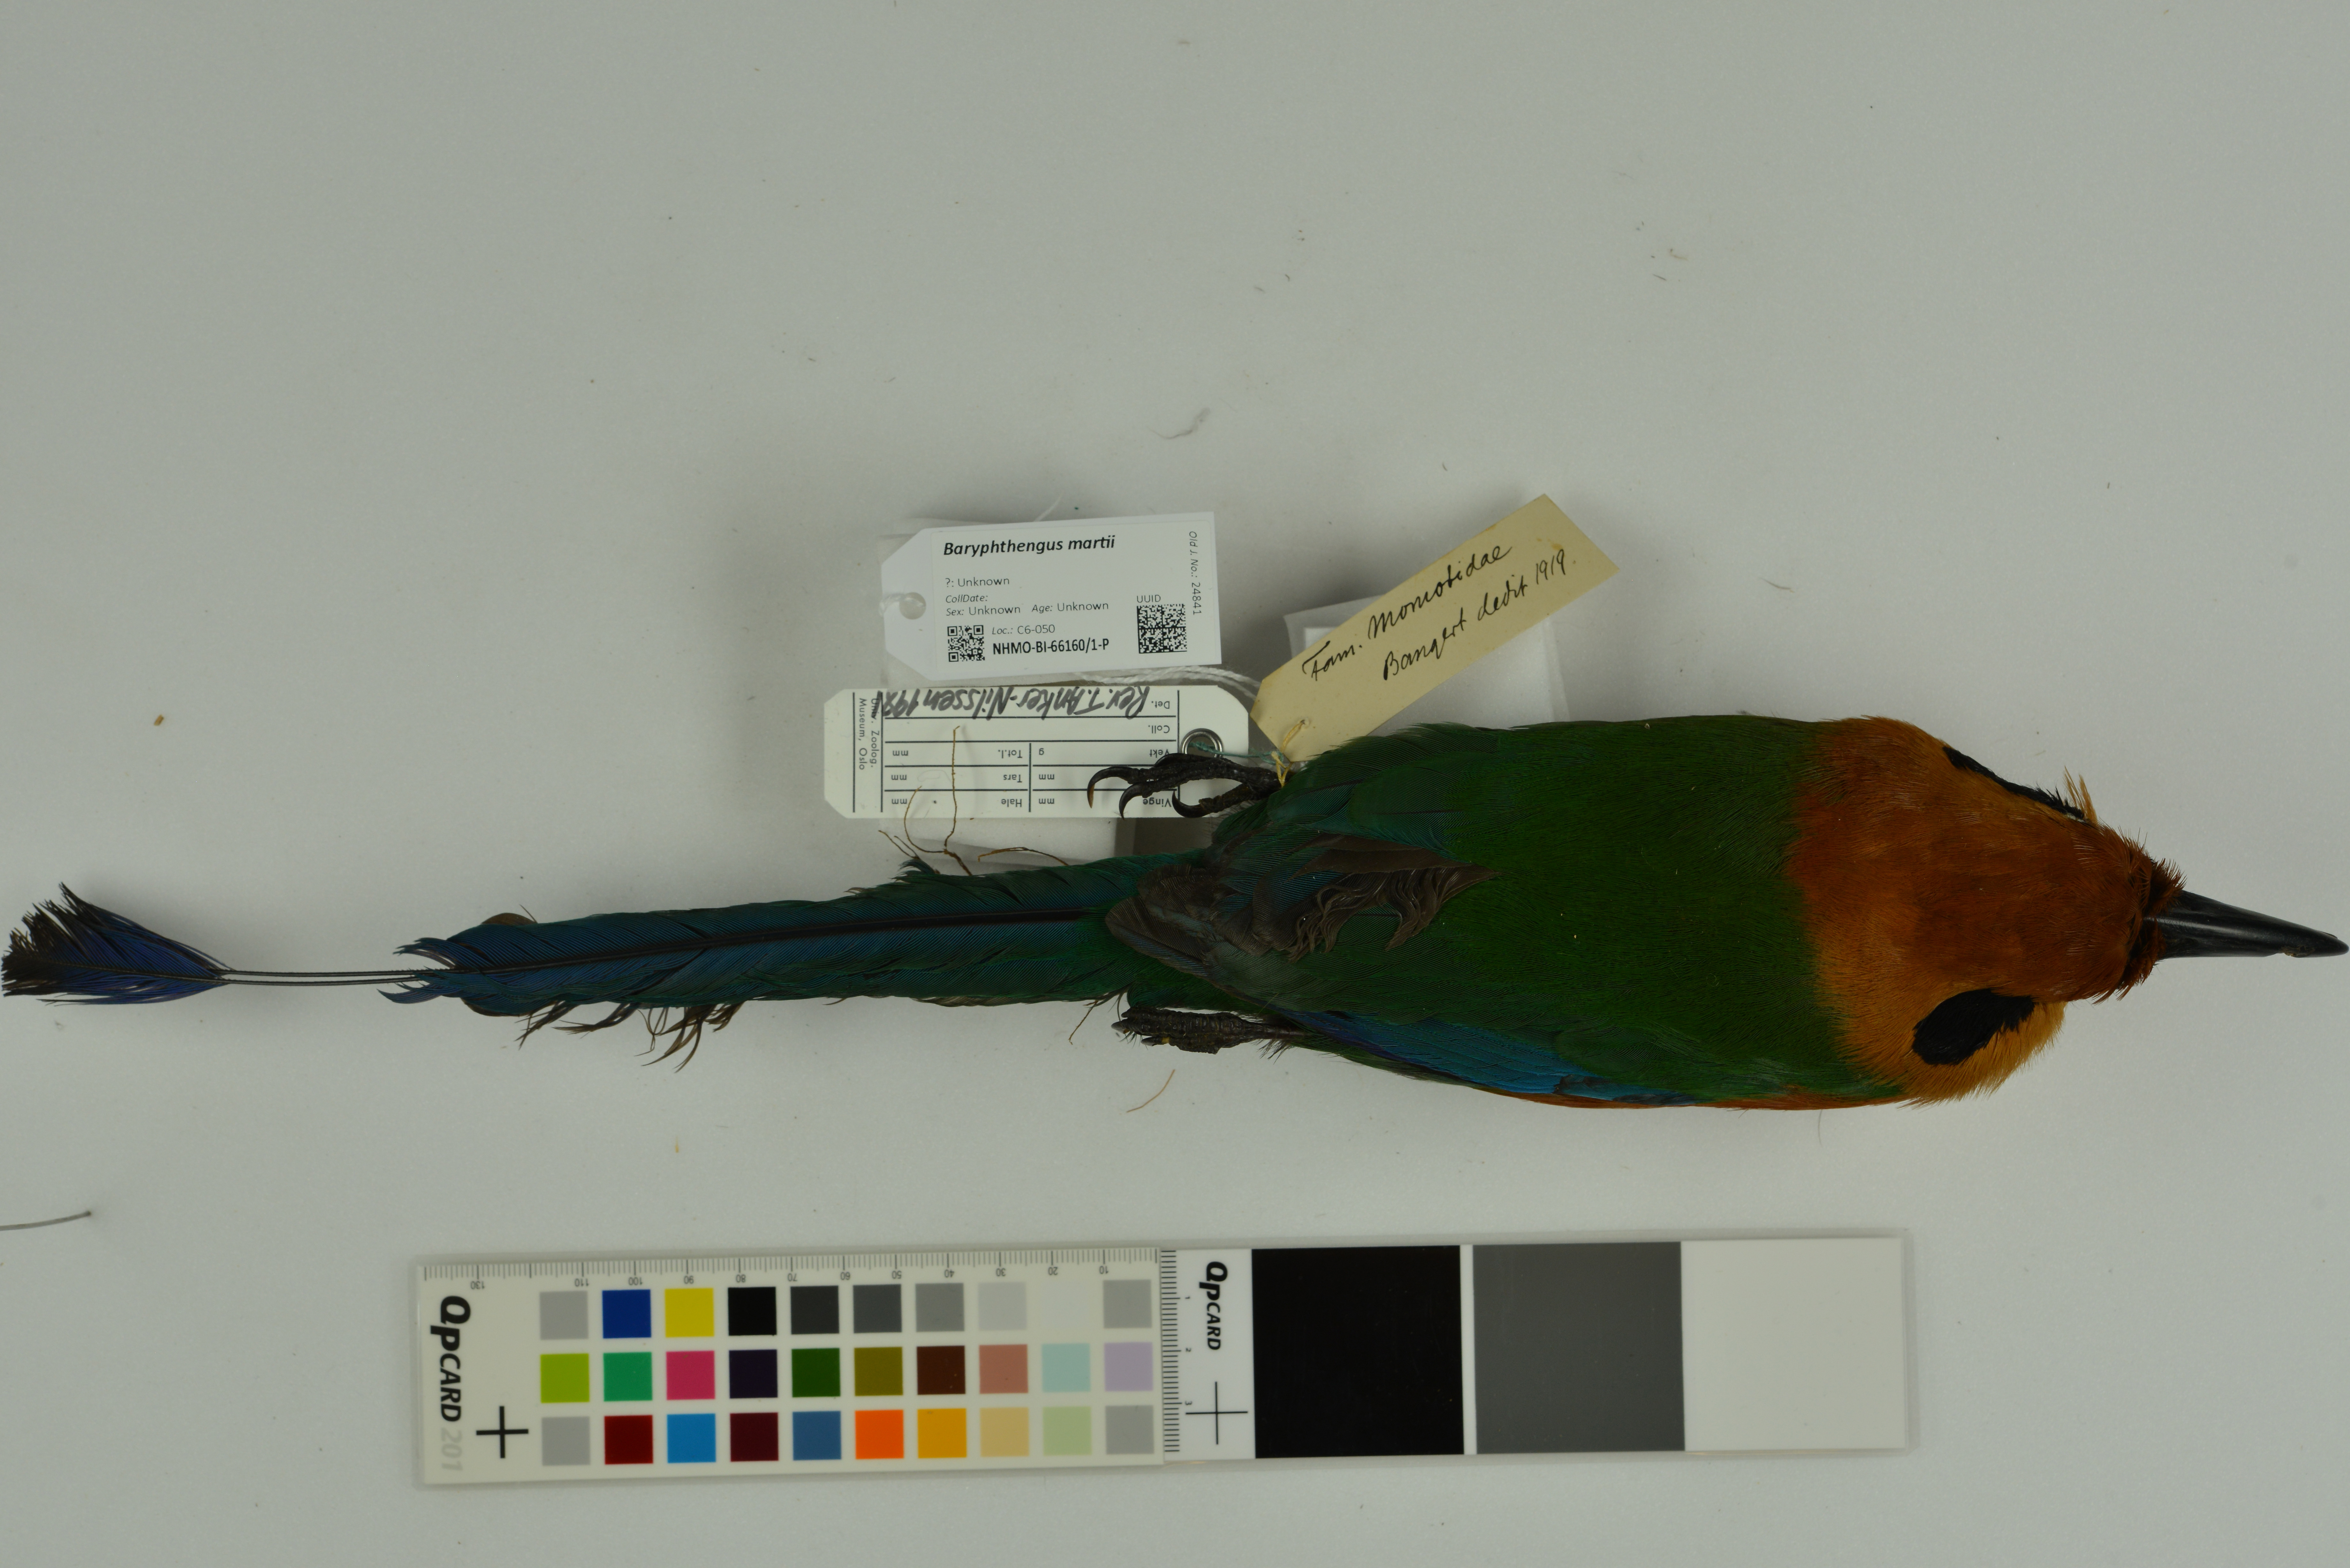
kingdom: Animalia
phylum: Chordata
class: Aves
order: Coraciiformes
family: Momotidae
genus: Baryphthengus
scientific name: Baryphthengus martii
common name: Rufous motmot
